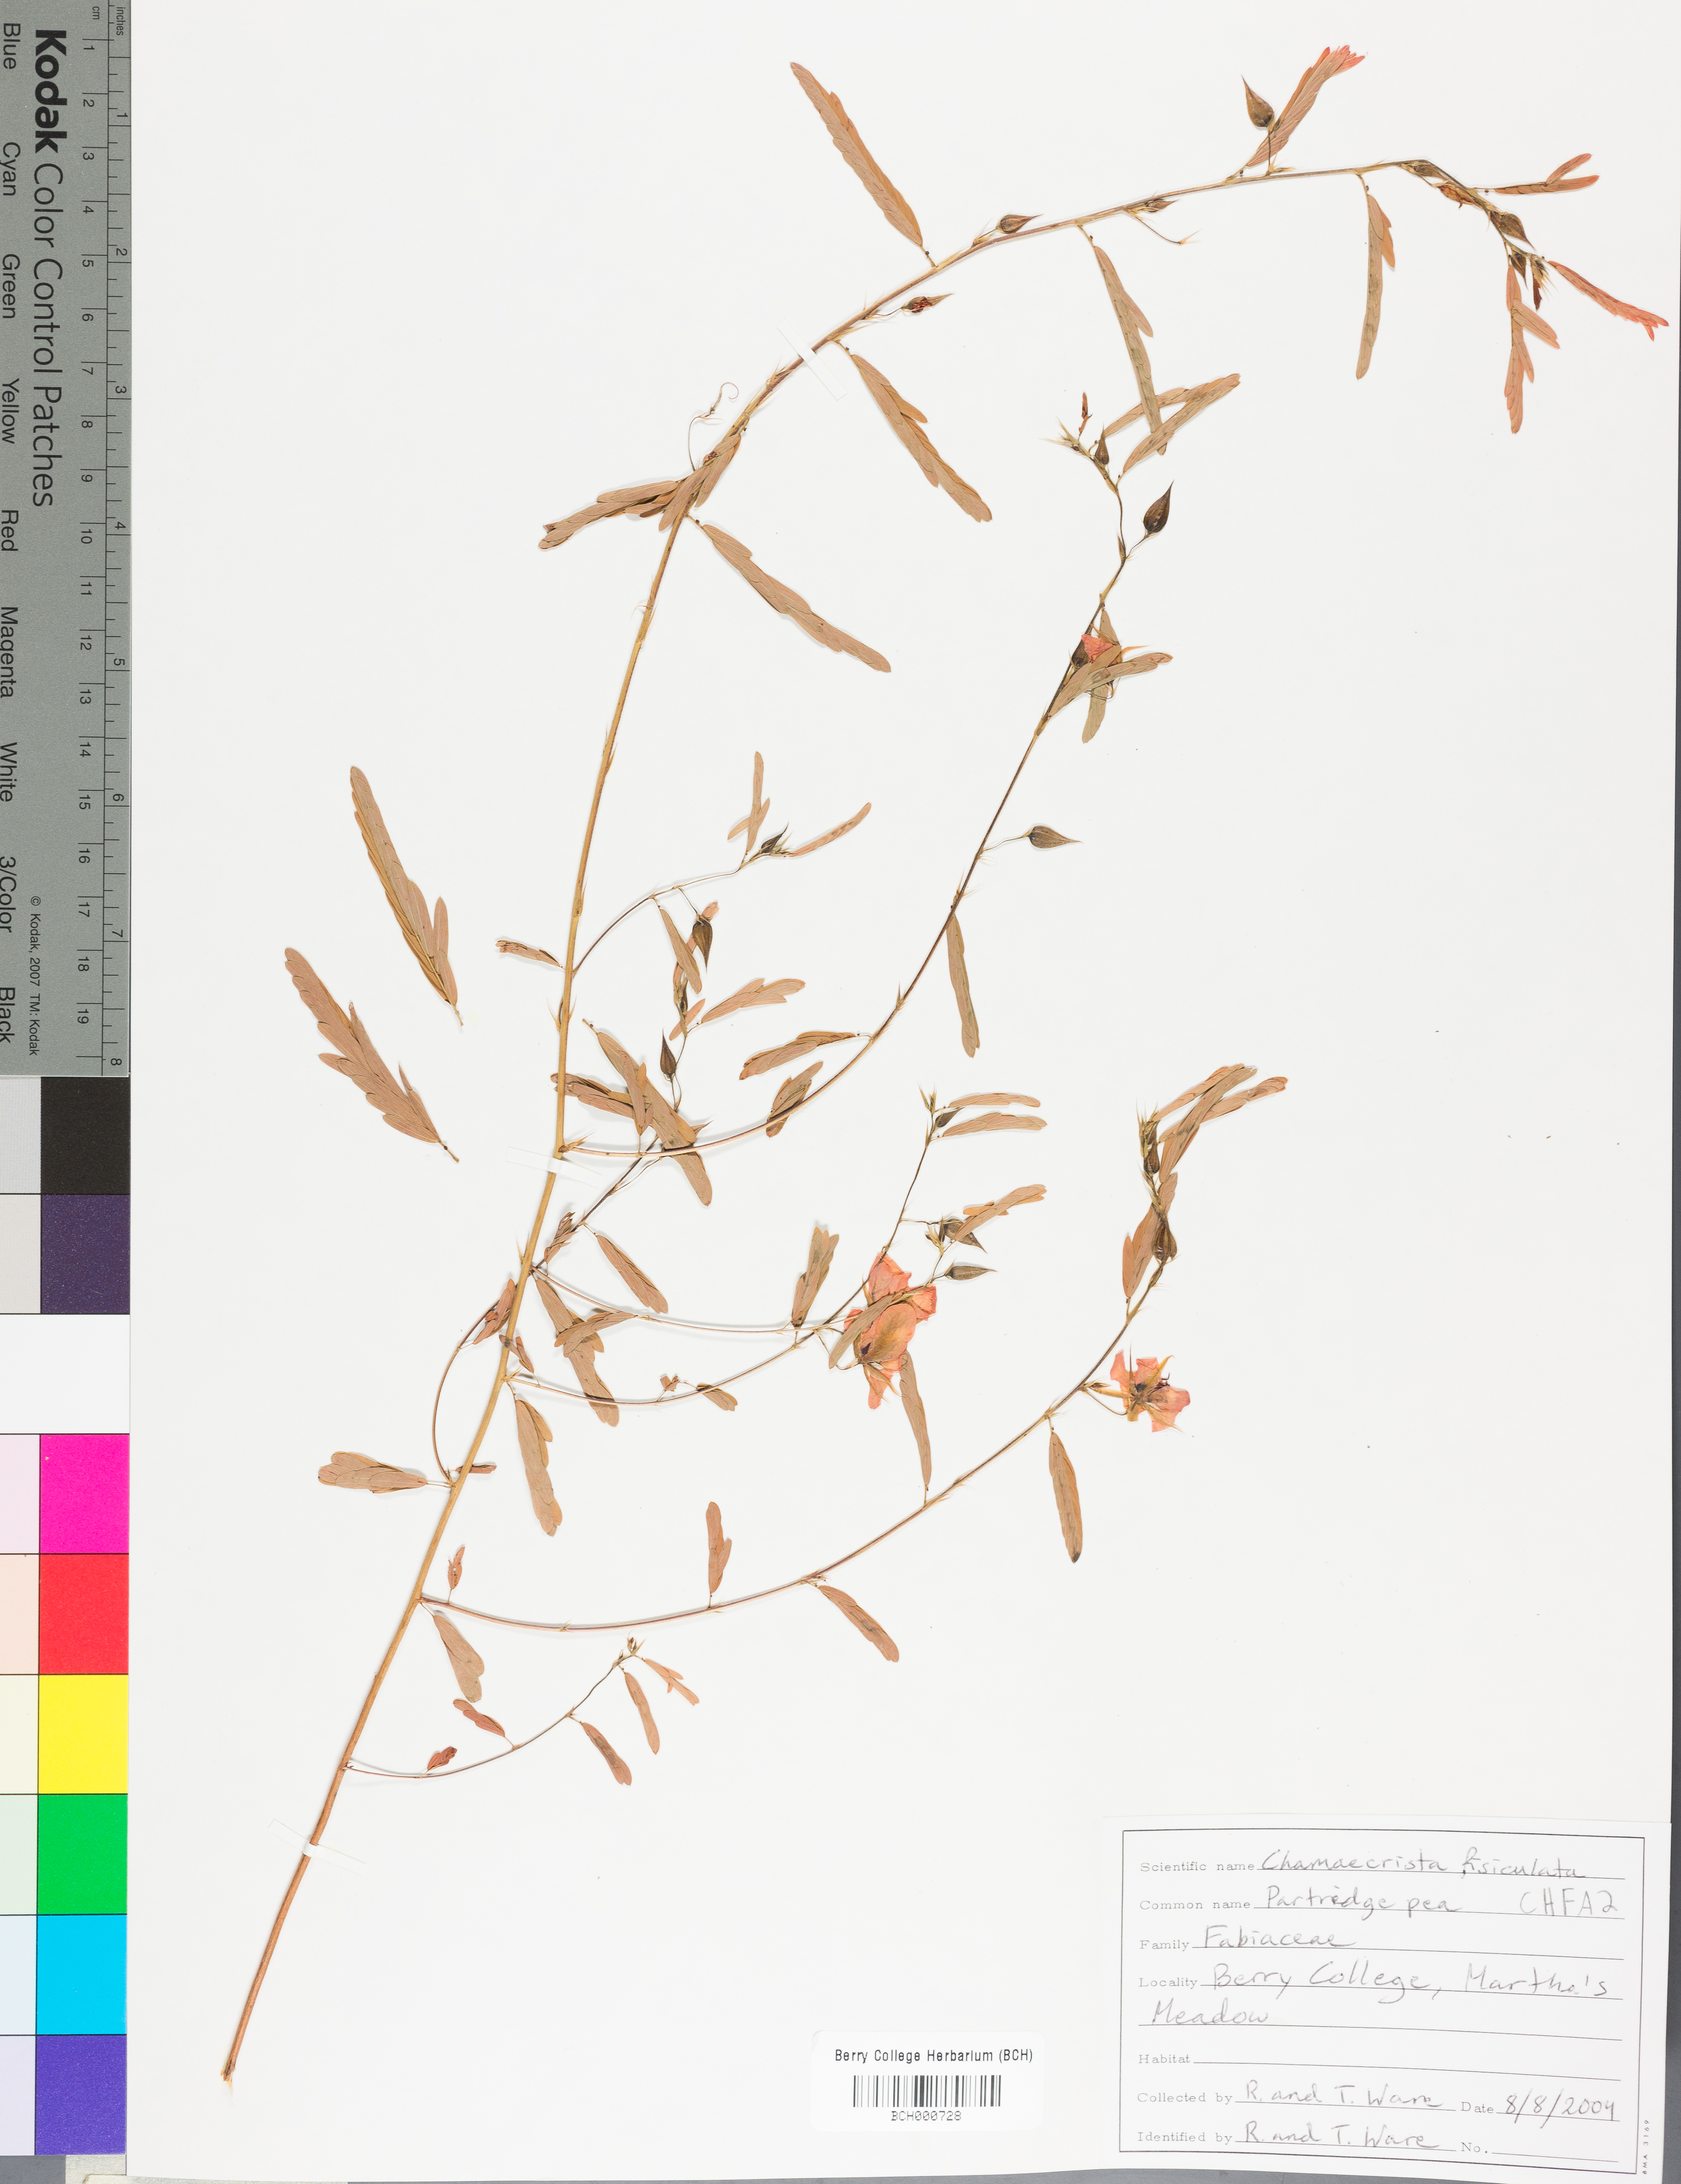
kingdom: Plantae
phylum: Tracheophyta
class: Magnoliopsida
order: Fabales
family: Fabaceae
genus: Chamaecrista
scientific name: Chamaecrista fasciculata
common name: Golden cassia
